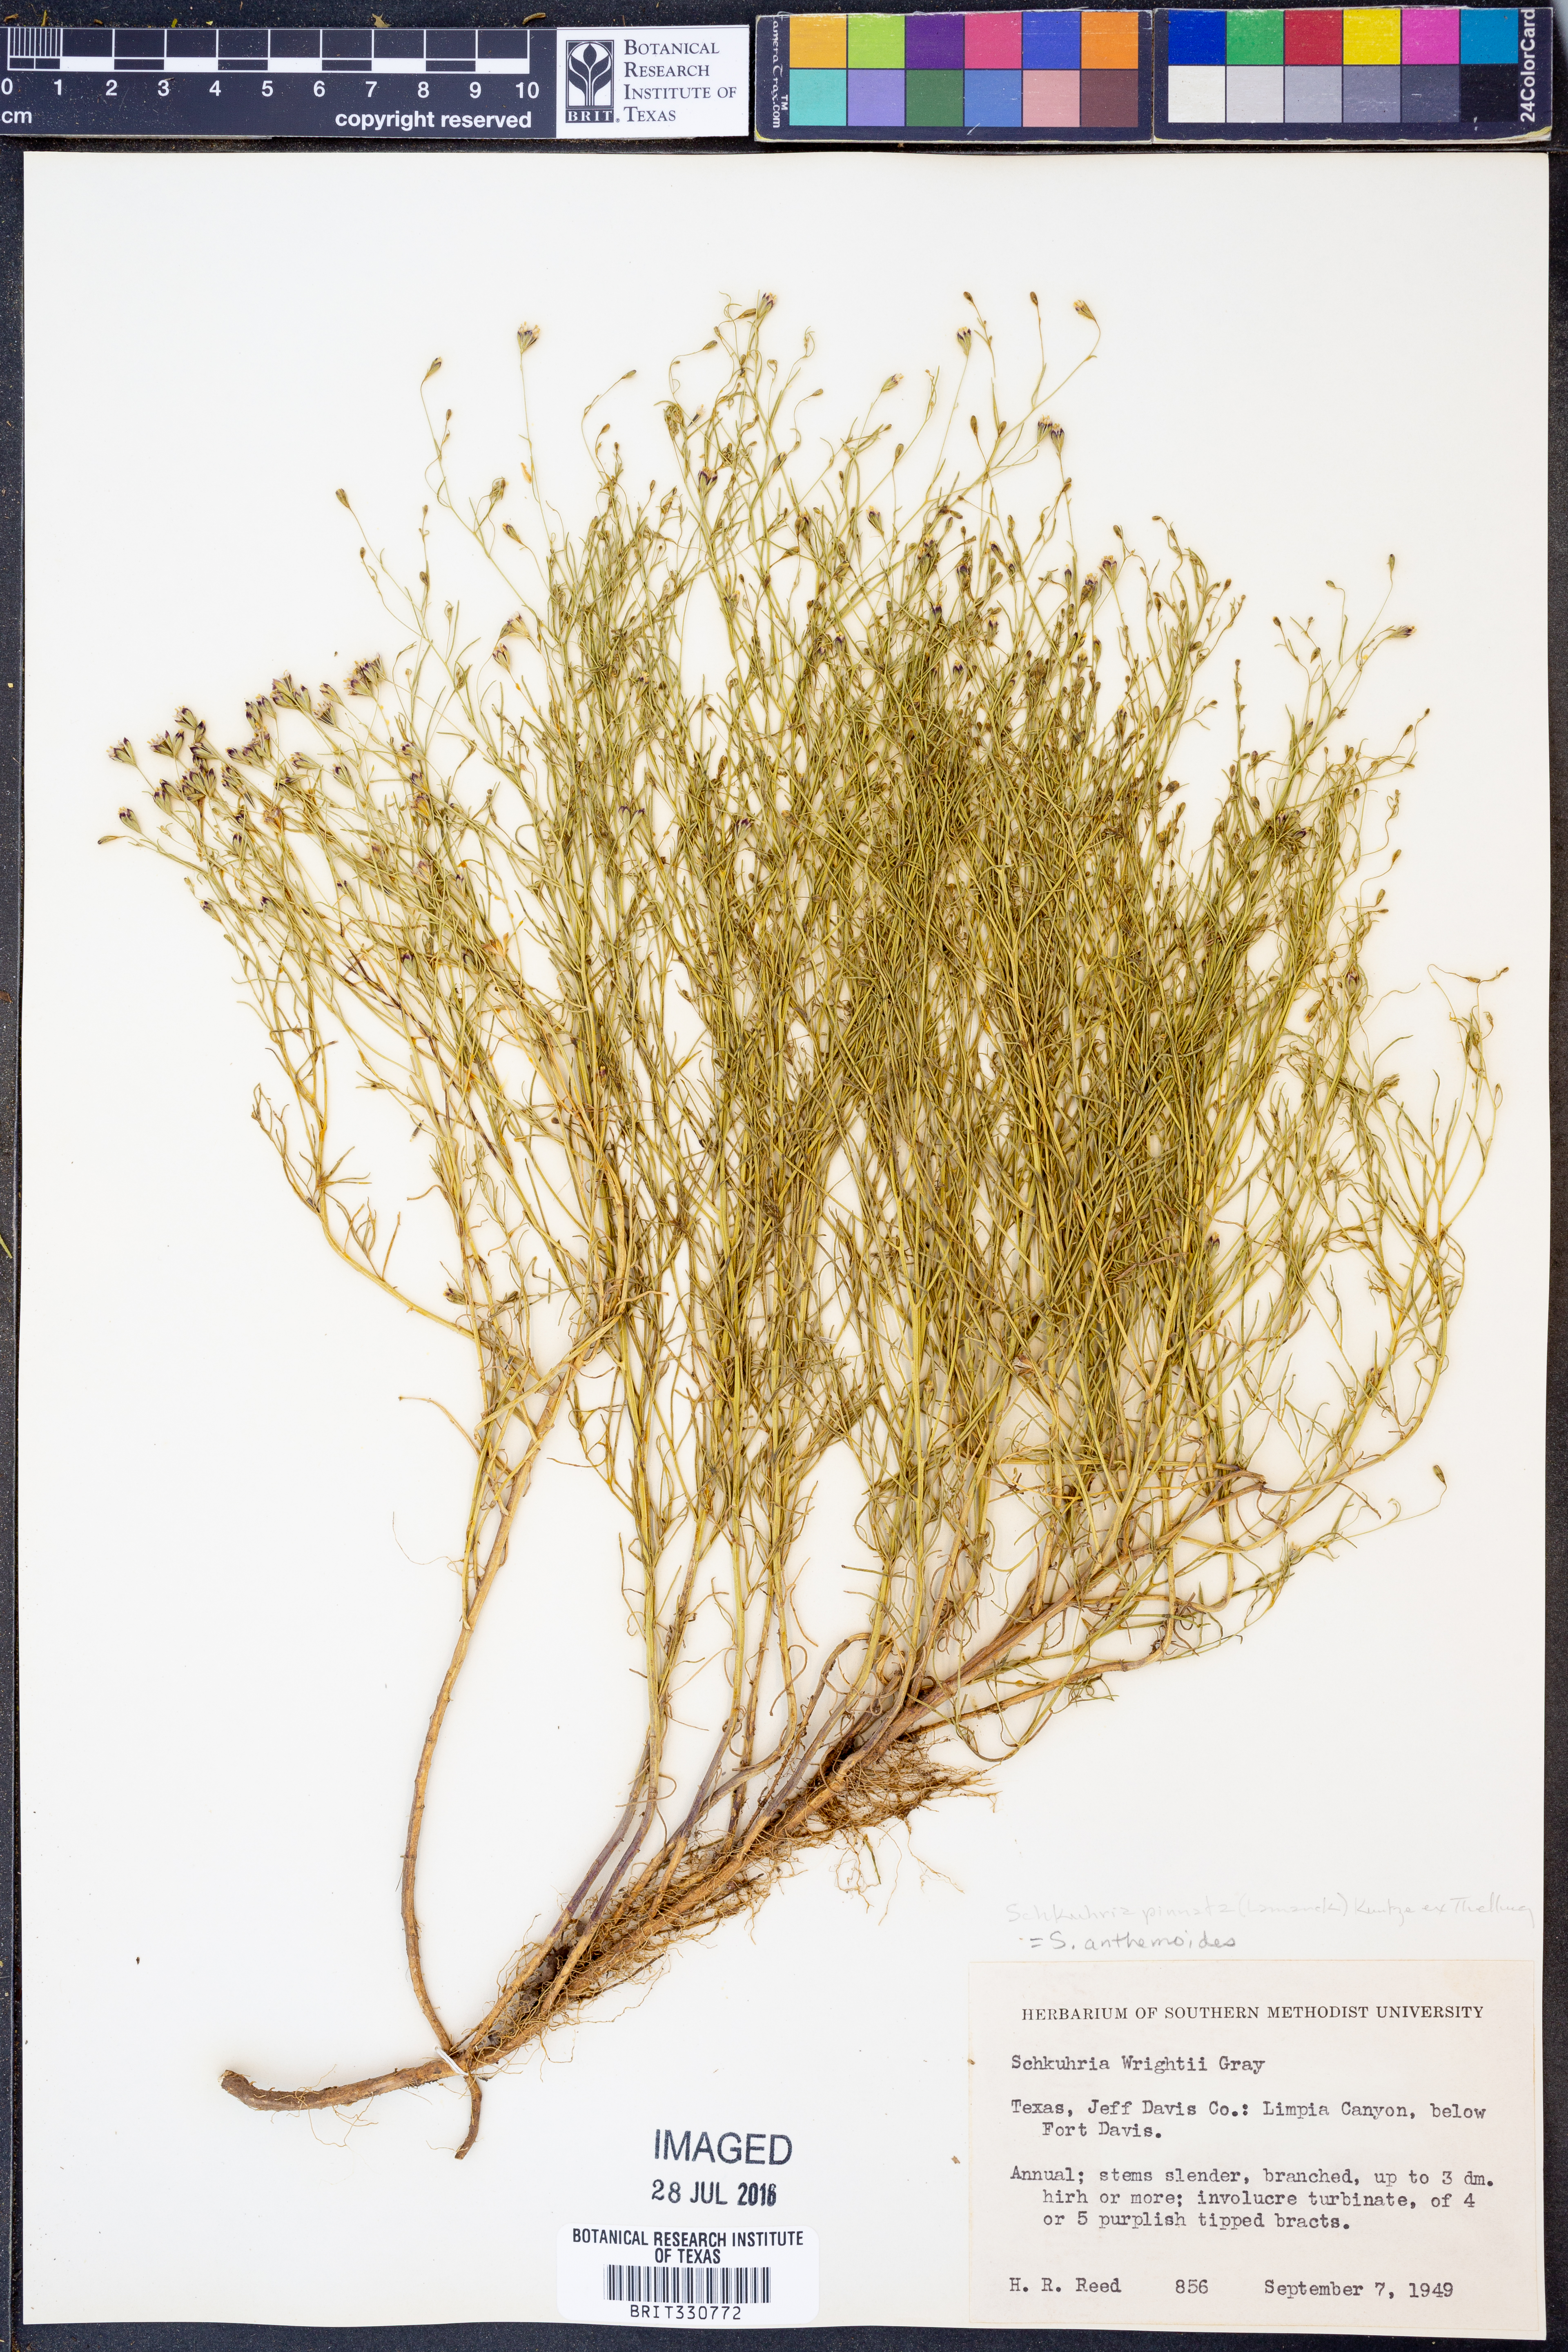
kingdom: Plantae
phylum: Tracheophyta
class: Magnoliopsida
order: Asterales
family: Asteraceae
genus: Schkuhria
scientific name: Schkuhria pinnata
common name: Dwarf marigold
